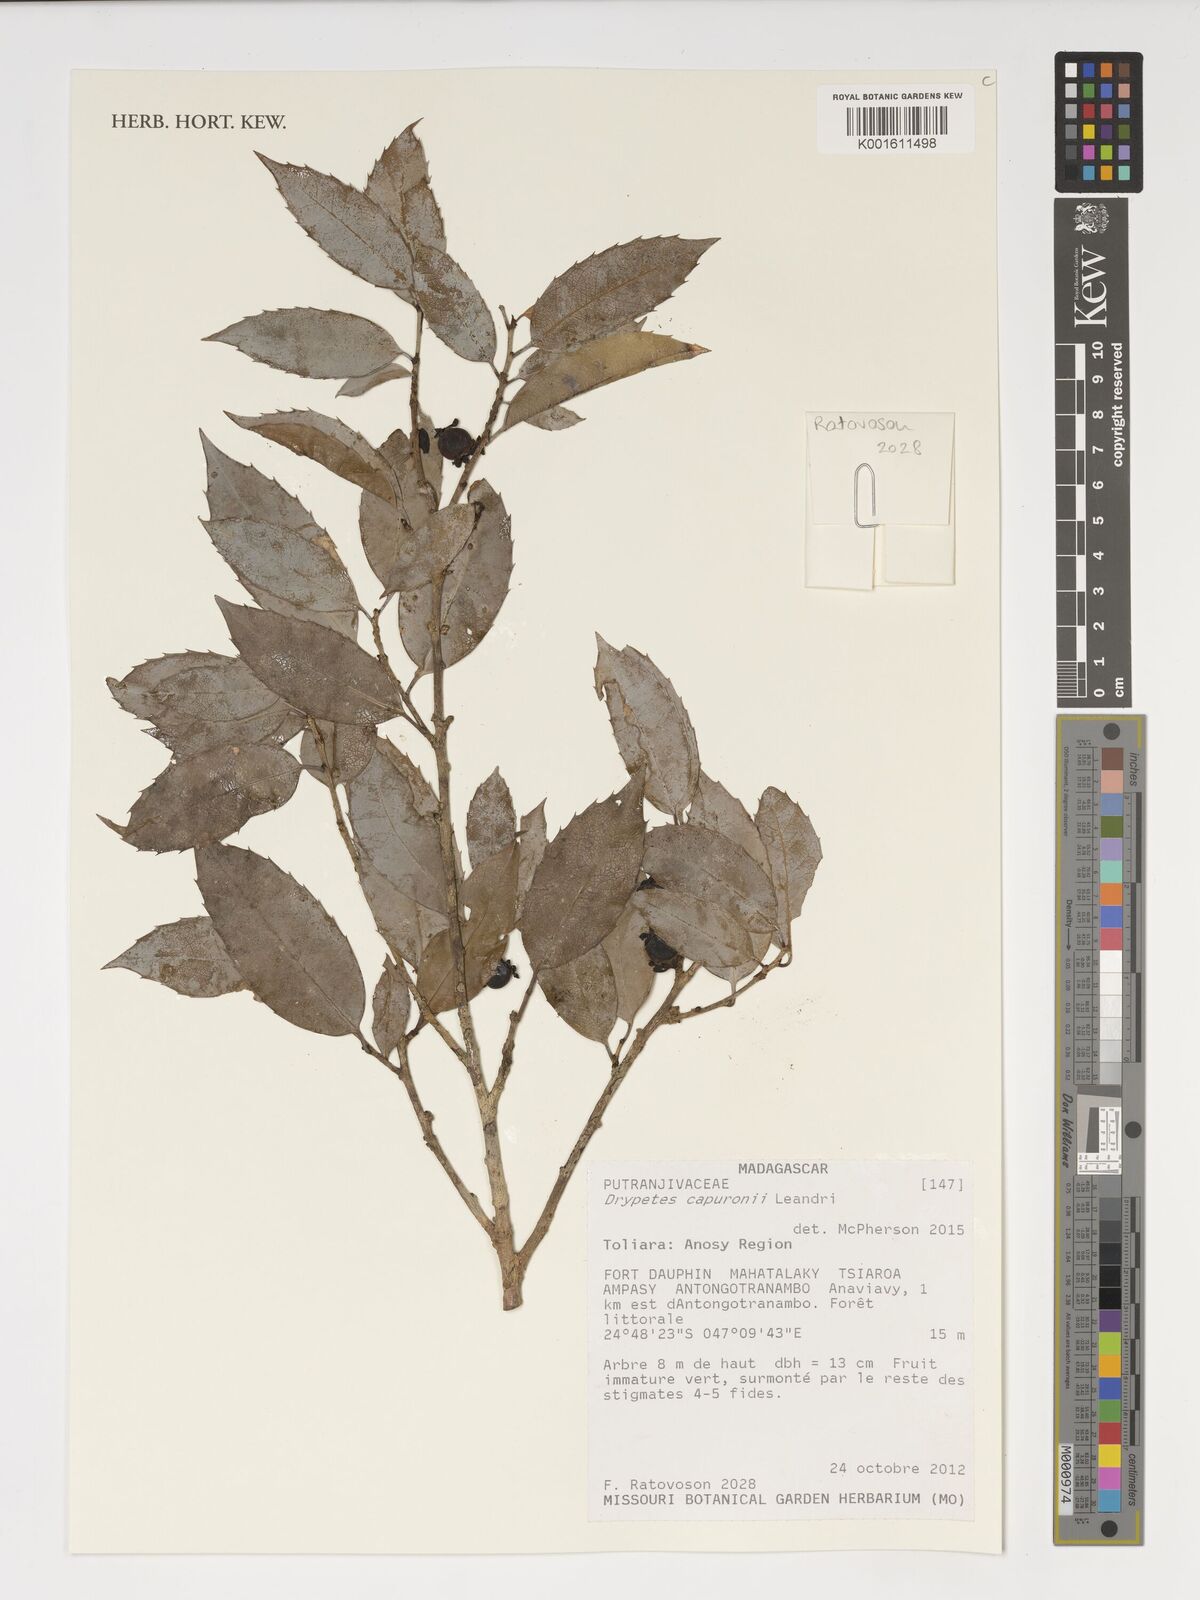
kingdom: Plantae
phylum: Tracheophyta
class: Magnoliopsida
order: Malpighiales
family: Putranjivaceae
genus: Drypetes
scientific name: Drypetes capuronii
